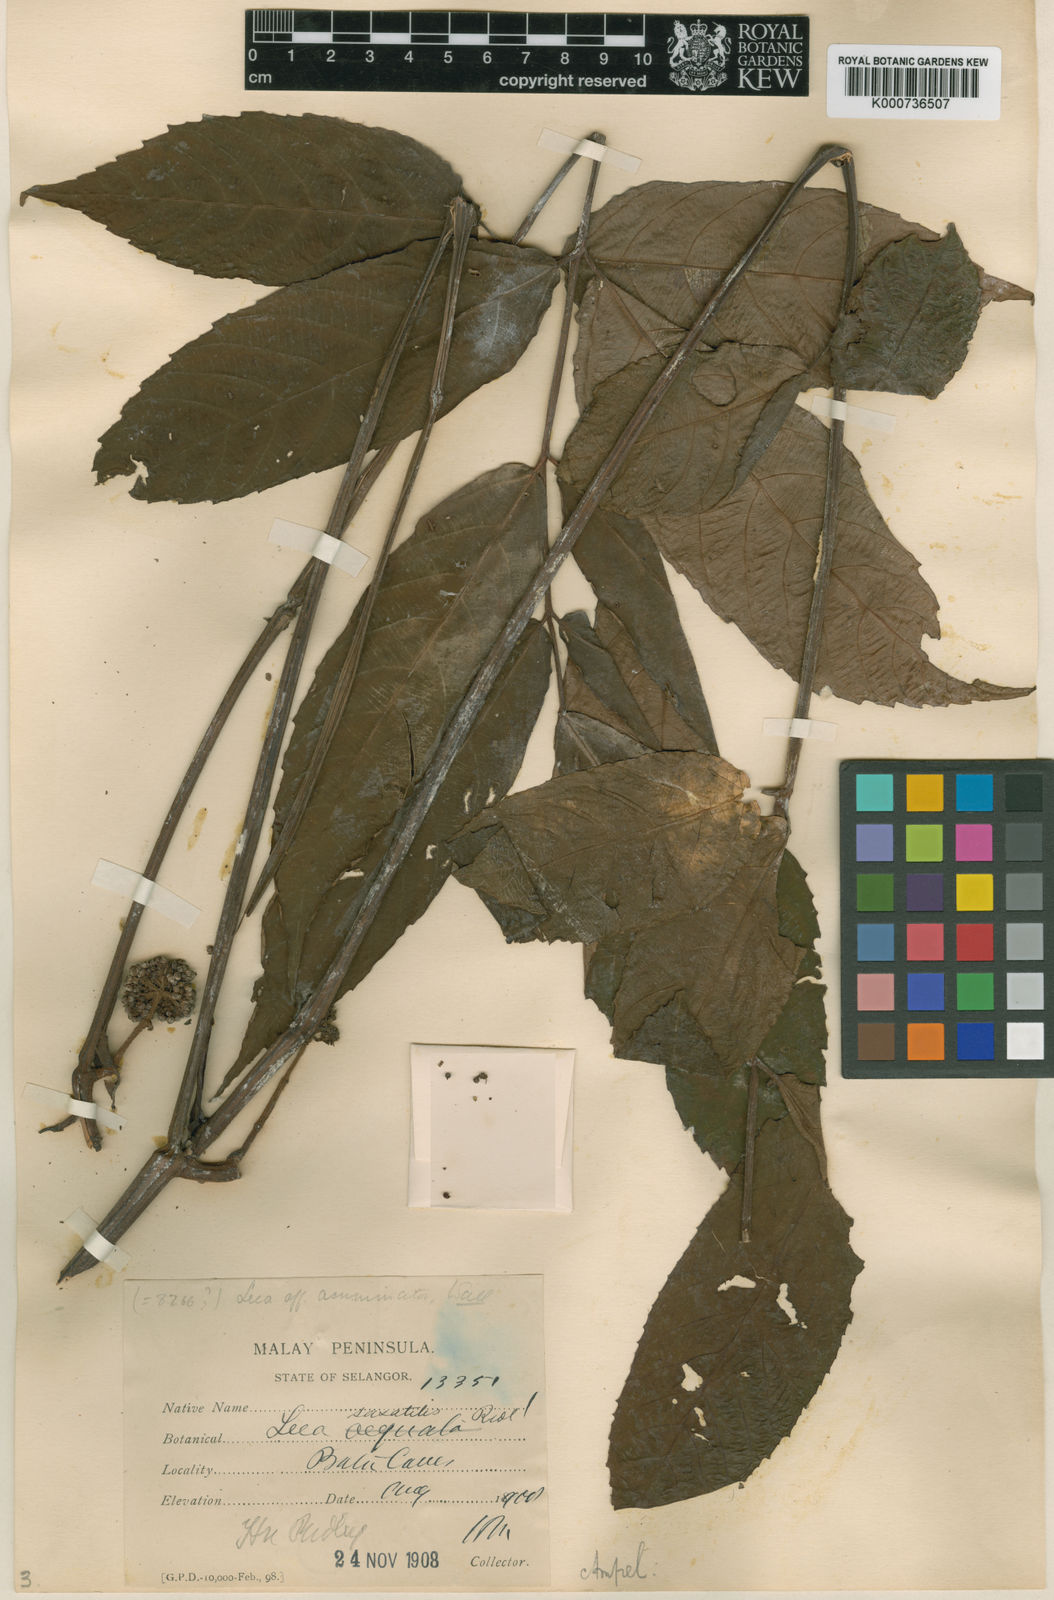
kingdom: Plantae
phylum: Tracheophyta
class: Magnoliopsida
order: Vitales
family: Vitaceae
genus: Leea
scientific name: Leea saxatilis
